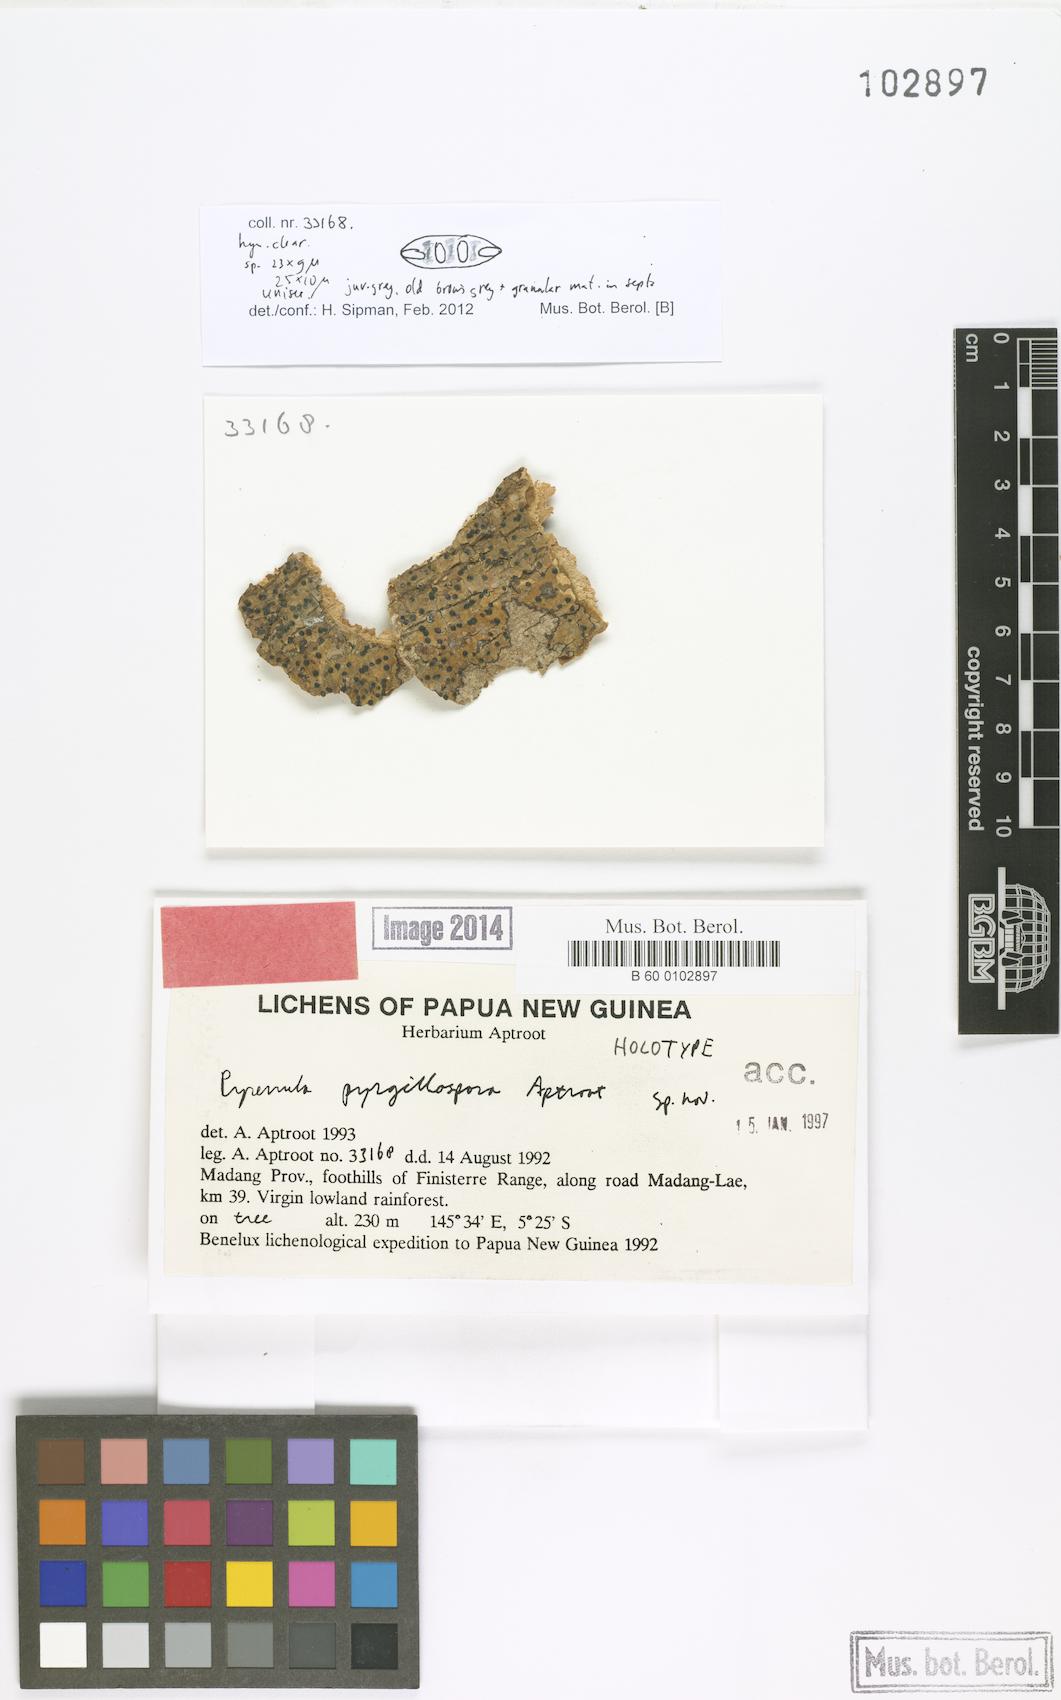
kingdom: Fungi
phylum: Ascomycota
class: Eurotiomycetes
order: Pyrenulales
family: Pyrenulaceae
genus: Pyrenula
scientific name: Pyrenula
